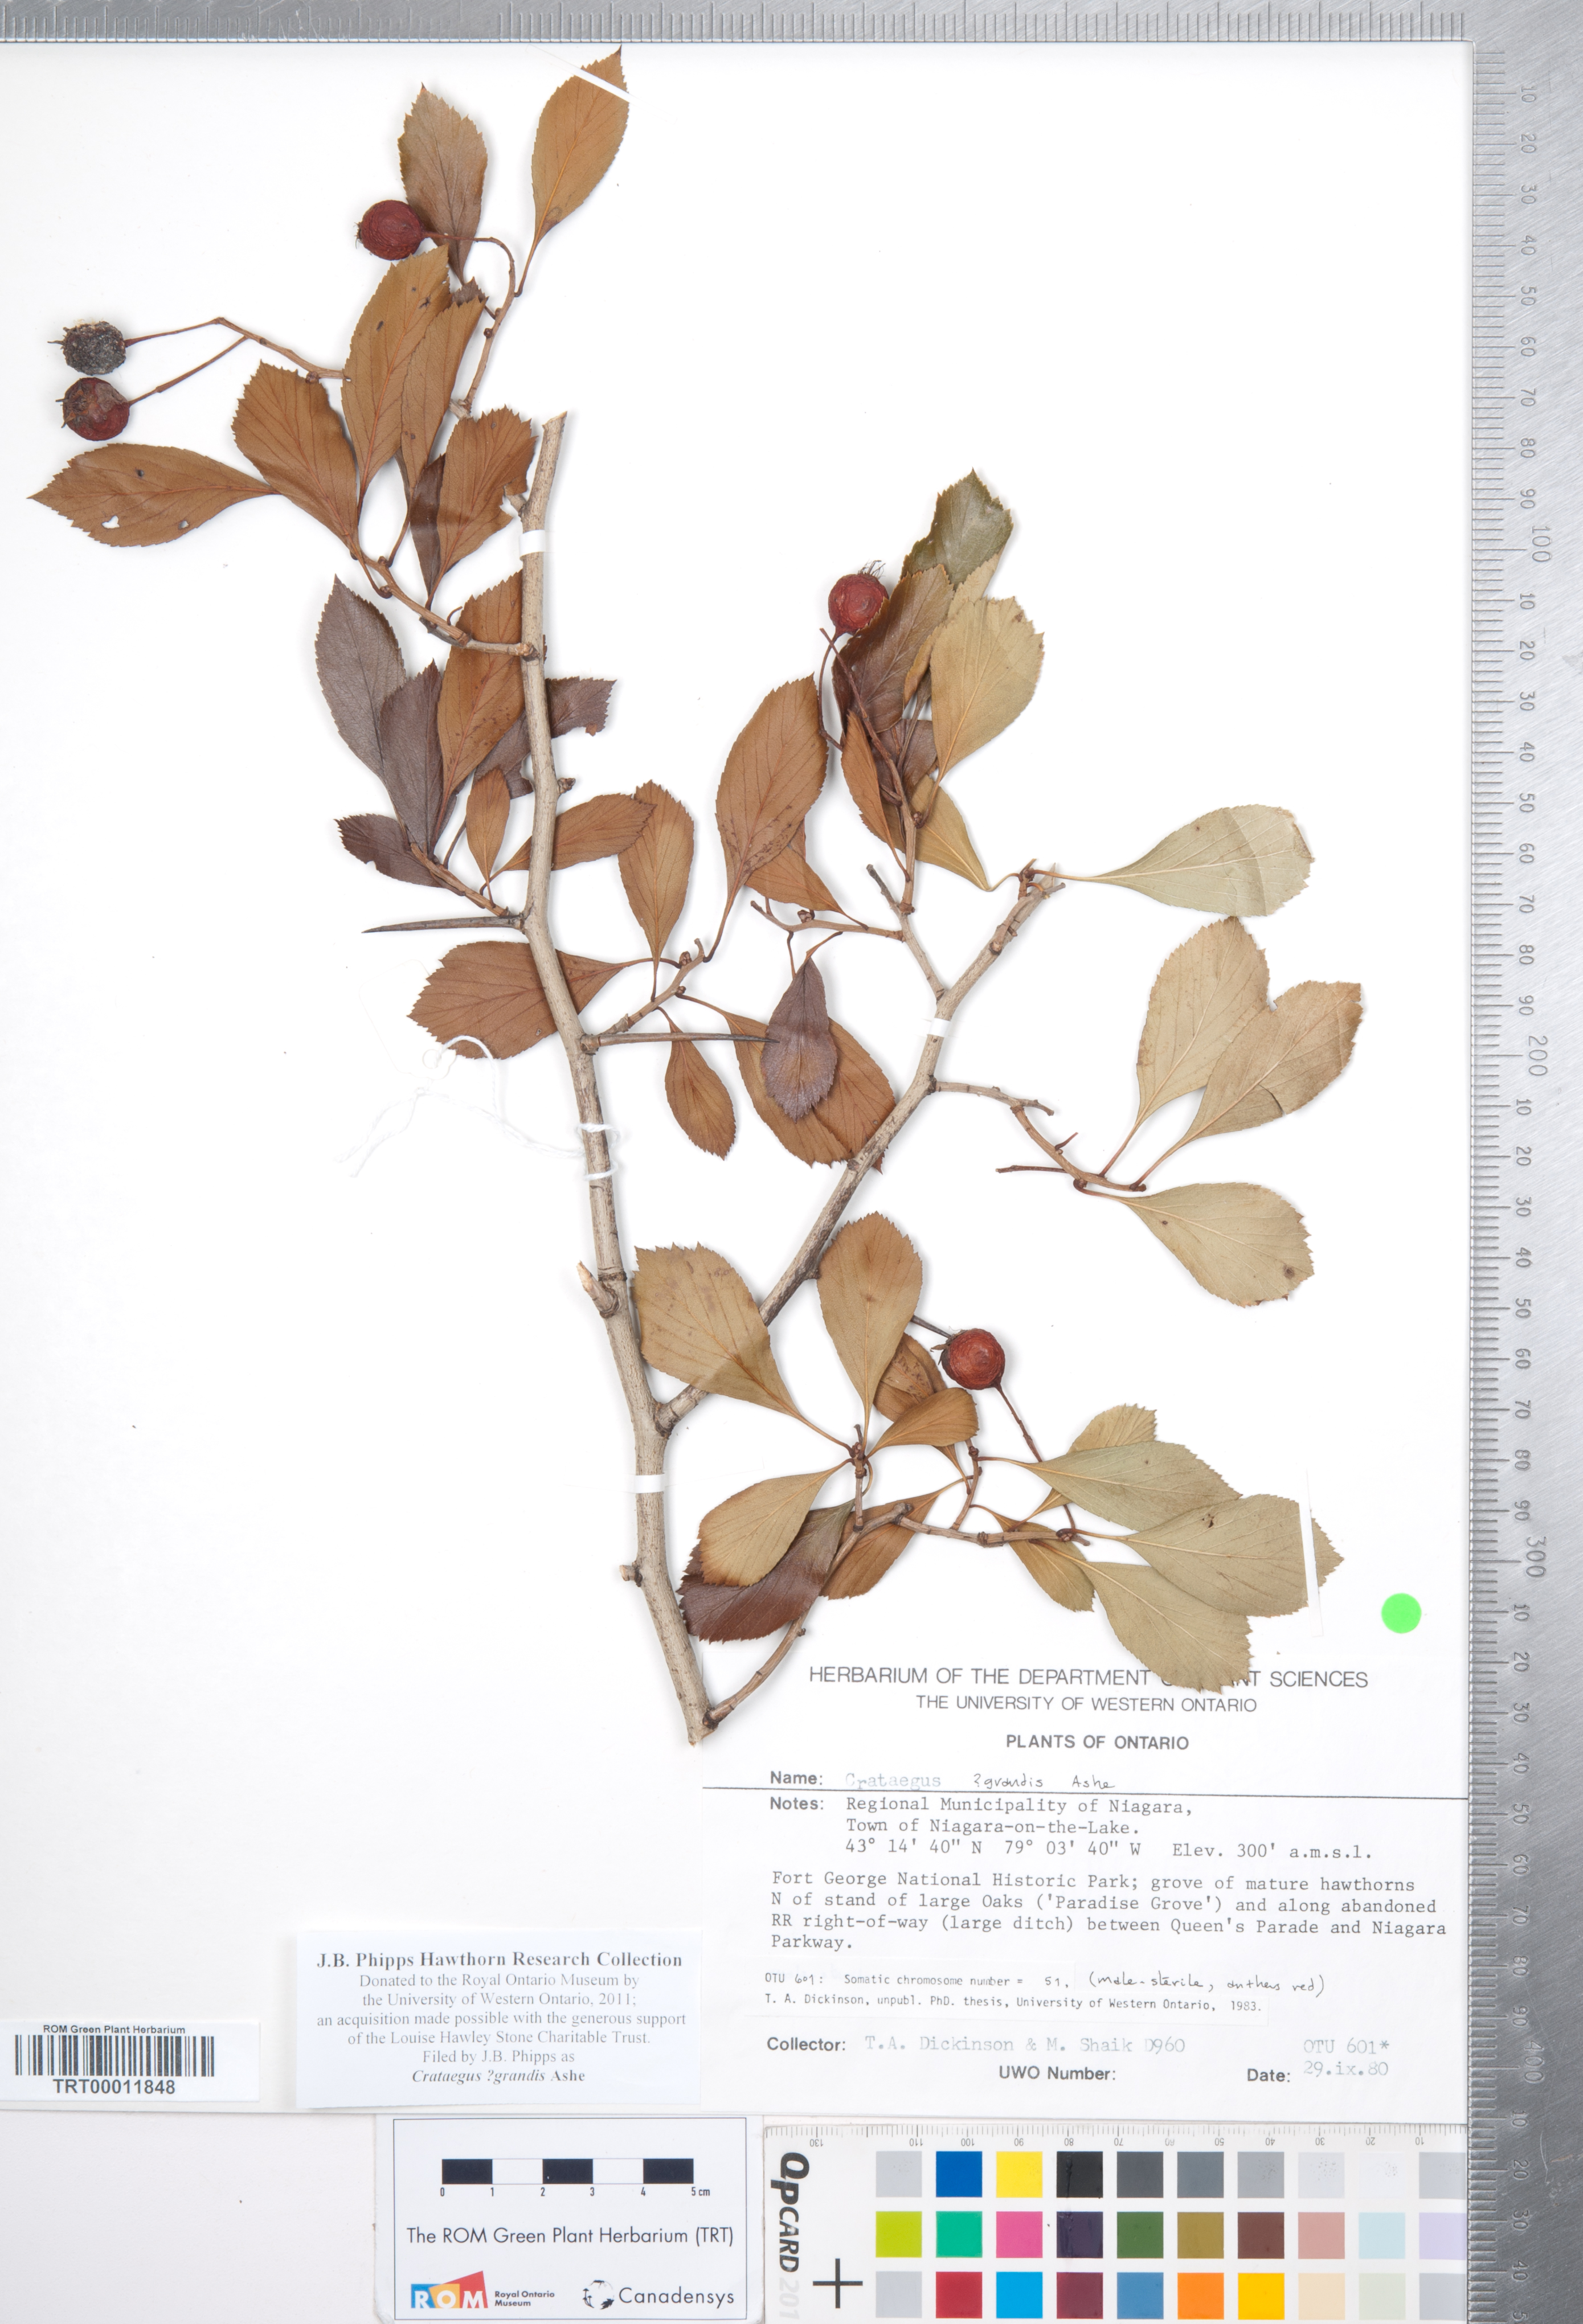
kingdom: Plantae
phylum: Tracheophyta
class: Magnoliopsida
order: Rosales
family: Rosaceae
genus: Crataegus
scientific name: Crataegus disperma
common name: Spreading hawthorn
